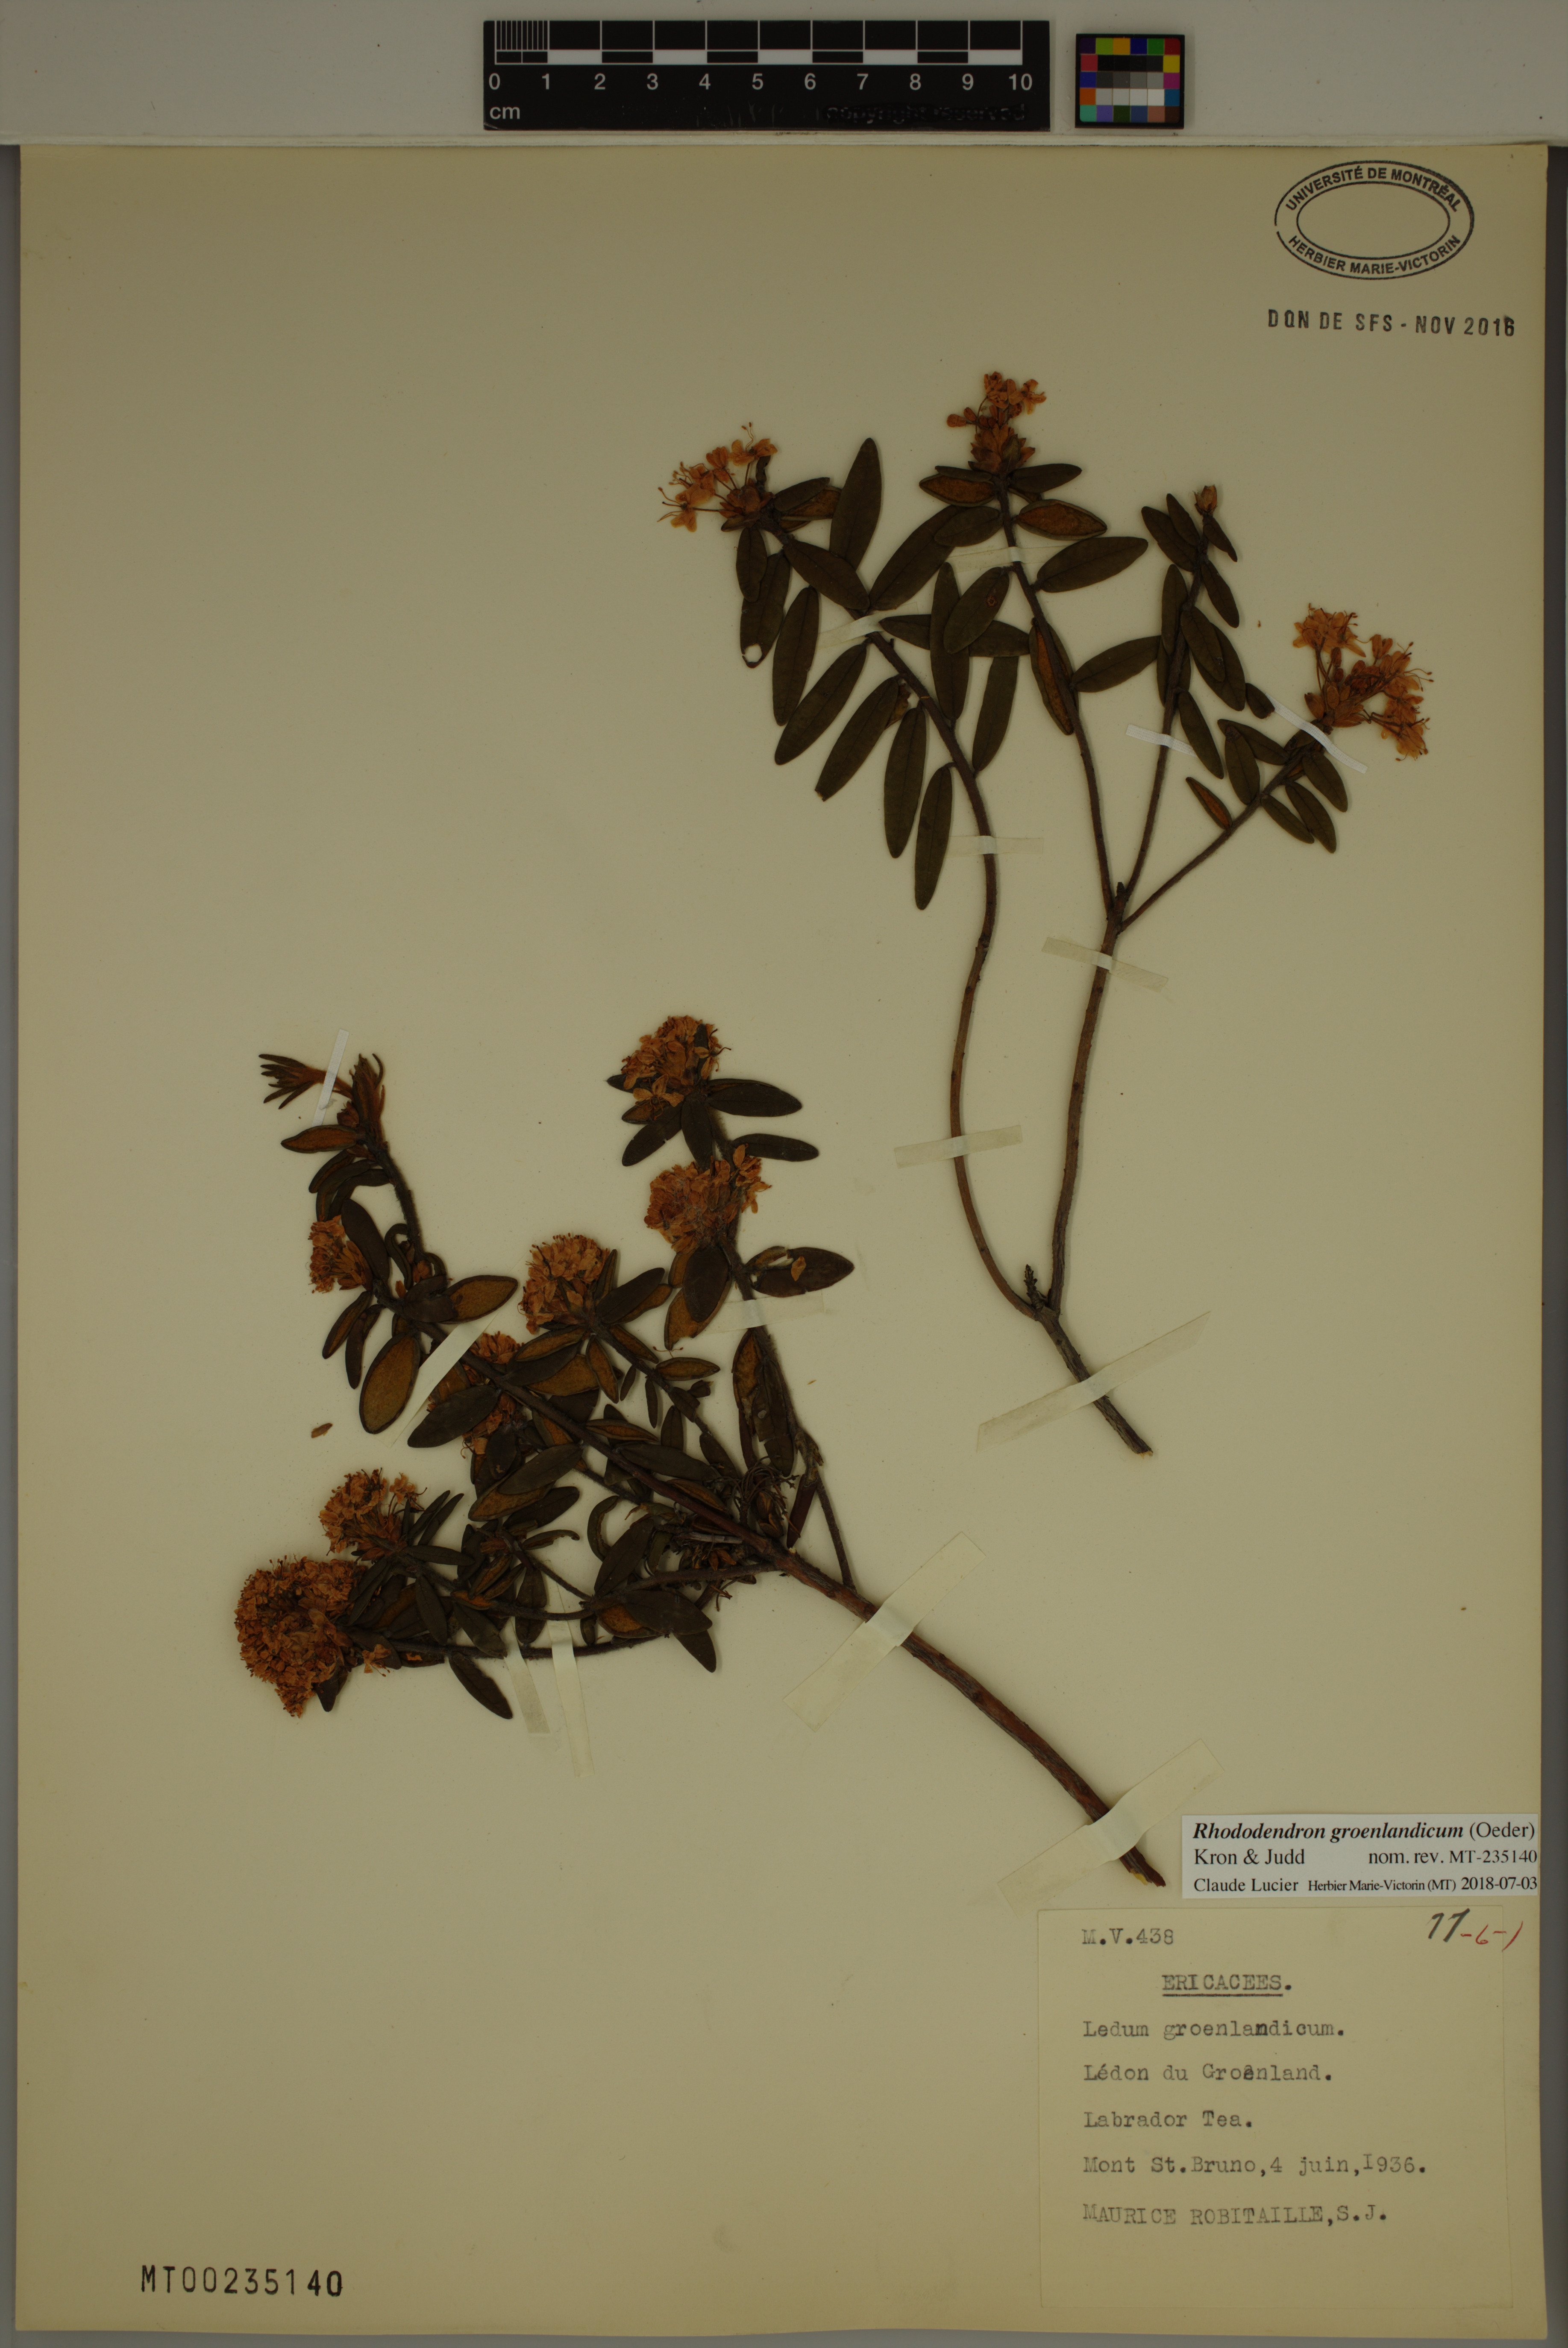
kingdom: Plantae
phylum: Tracheophyta
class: Magnoliopsida
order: Ericales
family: Ericaceae
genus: Rhododendron
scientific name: Rhododendron groenlandicum
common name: Bog labrador tea
